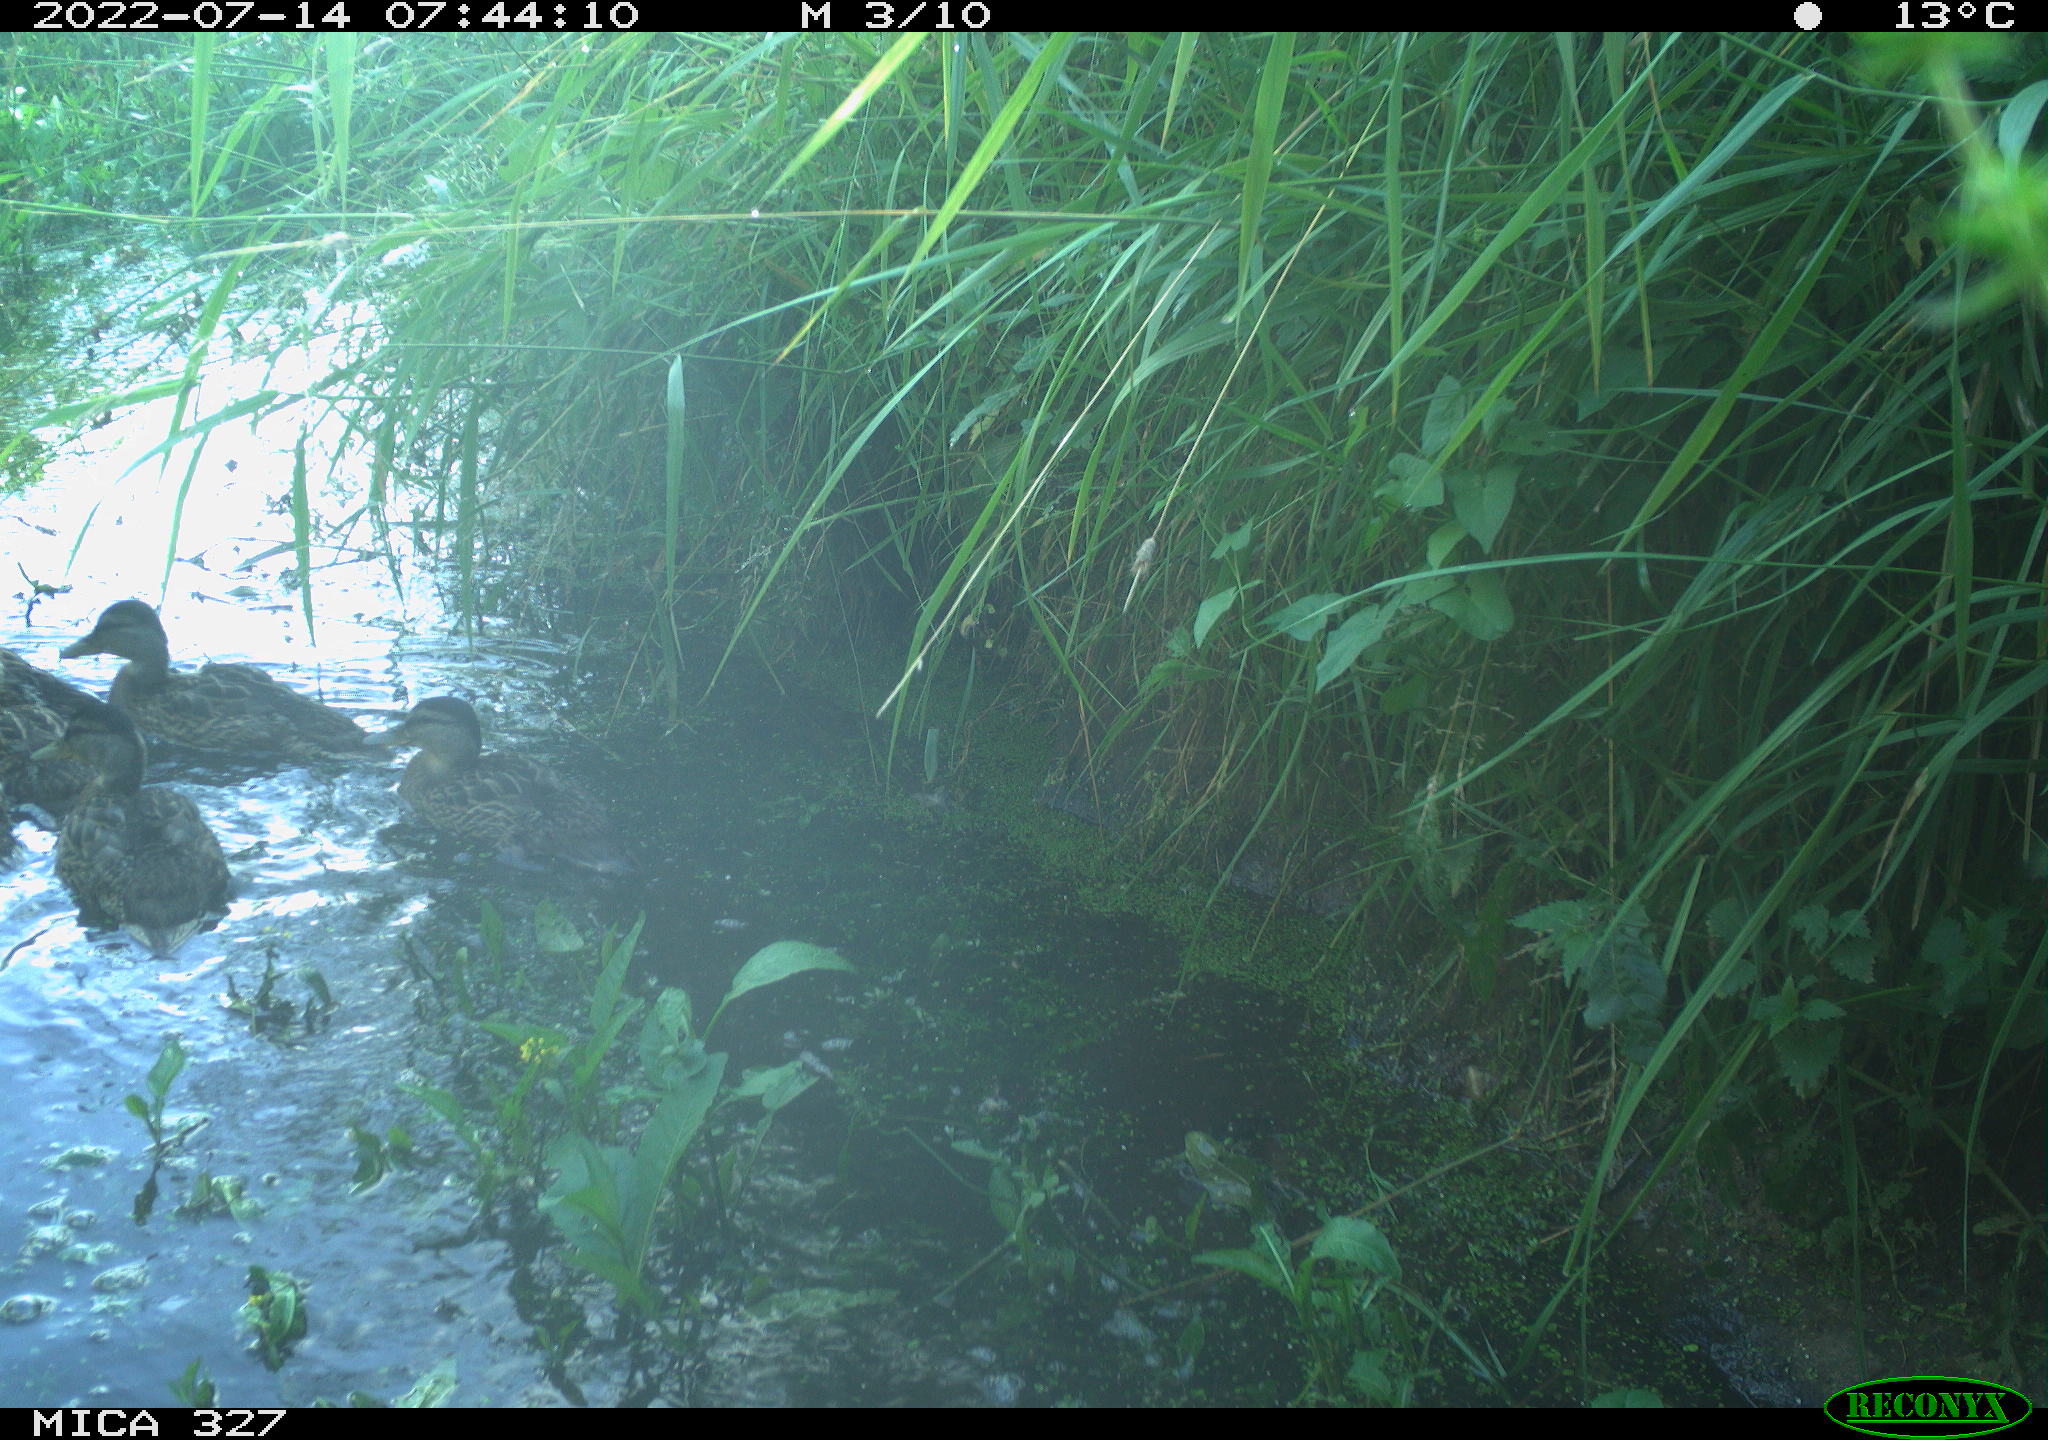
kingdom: Animalia
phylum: Chordata
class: Aves
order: Anseriformes
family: Anatidae
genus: Anas
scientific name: Anas
